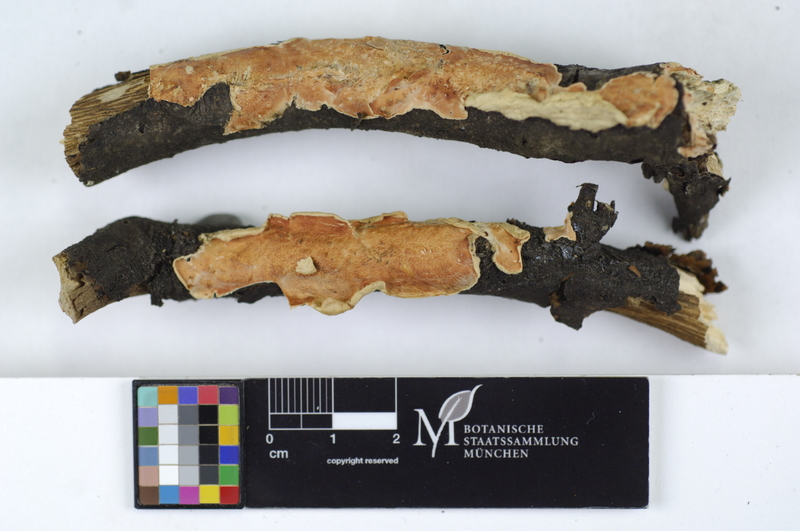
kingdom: Fungi
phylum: Basidiomycota
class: Agaricomycetes
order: Polyporales
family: Irpicaceae
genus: Byssomerulius
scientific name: Byssomerulius corium
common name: Netted crust
